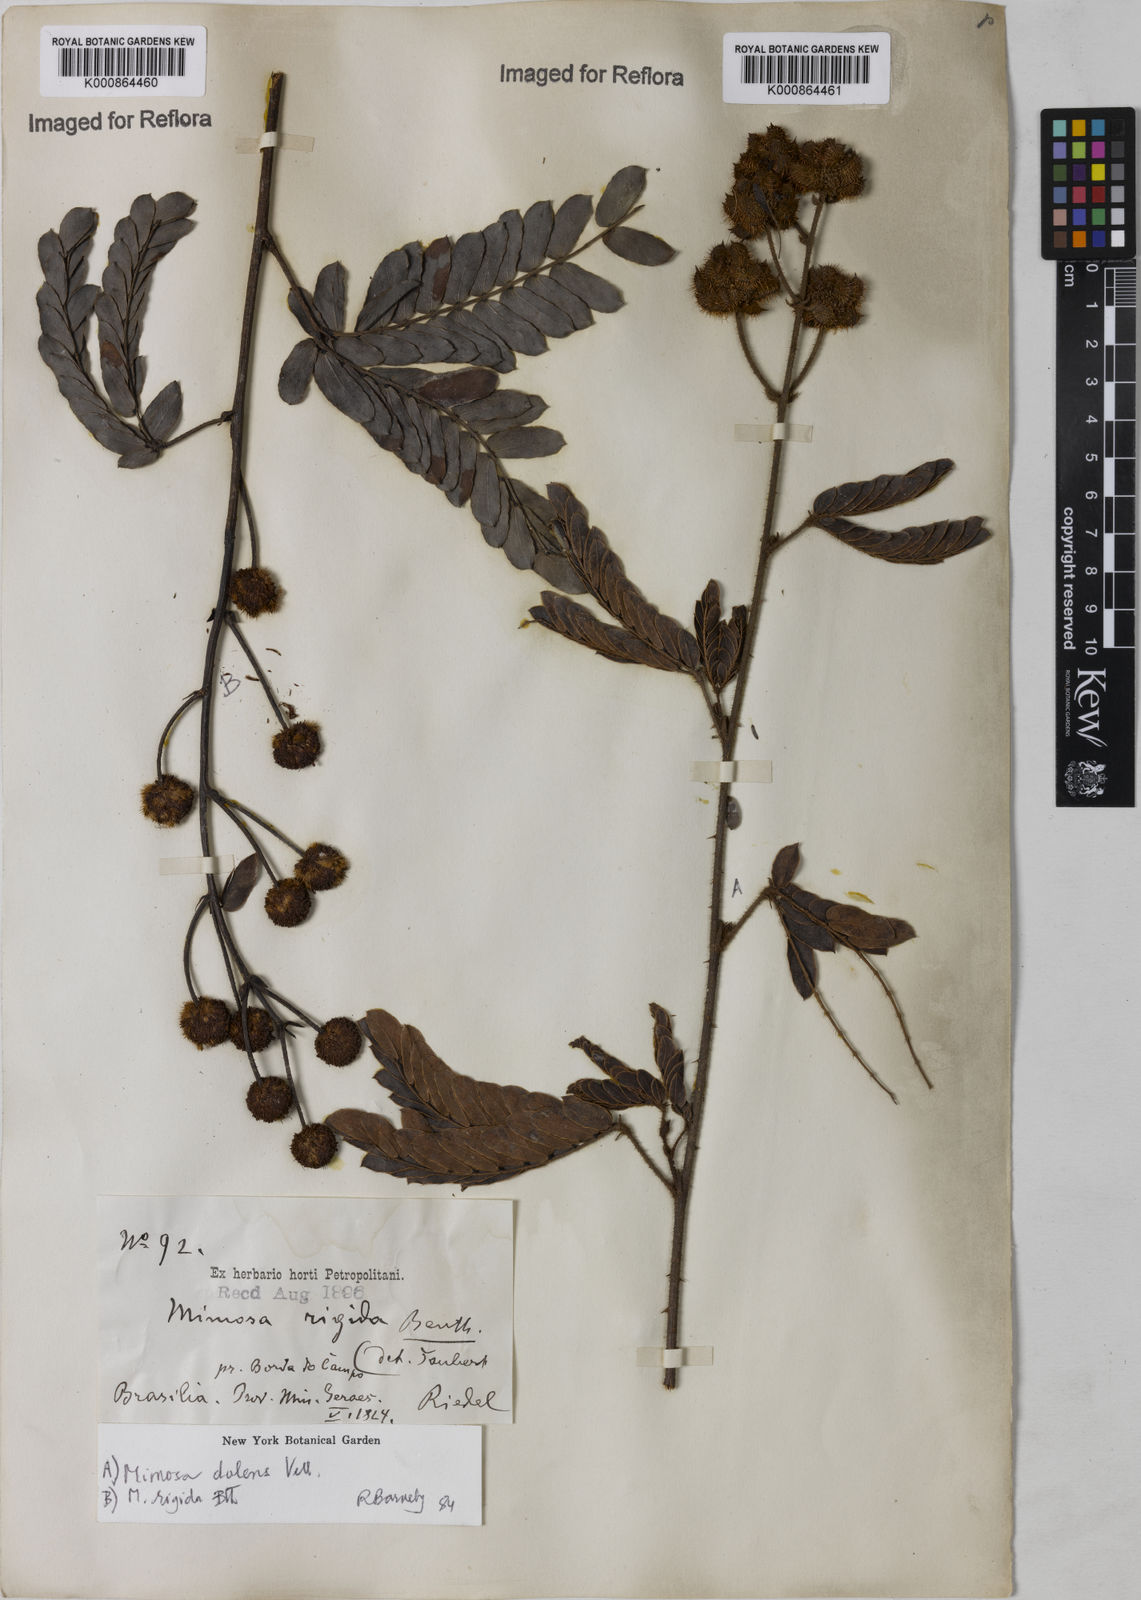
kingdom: Plantae
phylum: Tracheophyta
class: Magnoliopsida
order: Fabales
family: Fabaceae
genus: Mimosa
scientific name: Mimosa dolens
